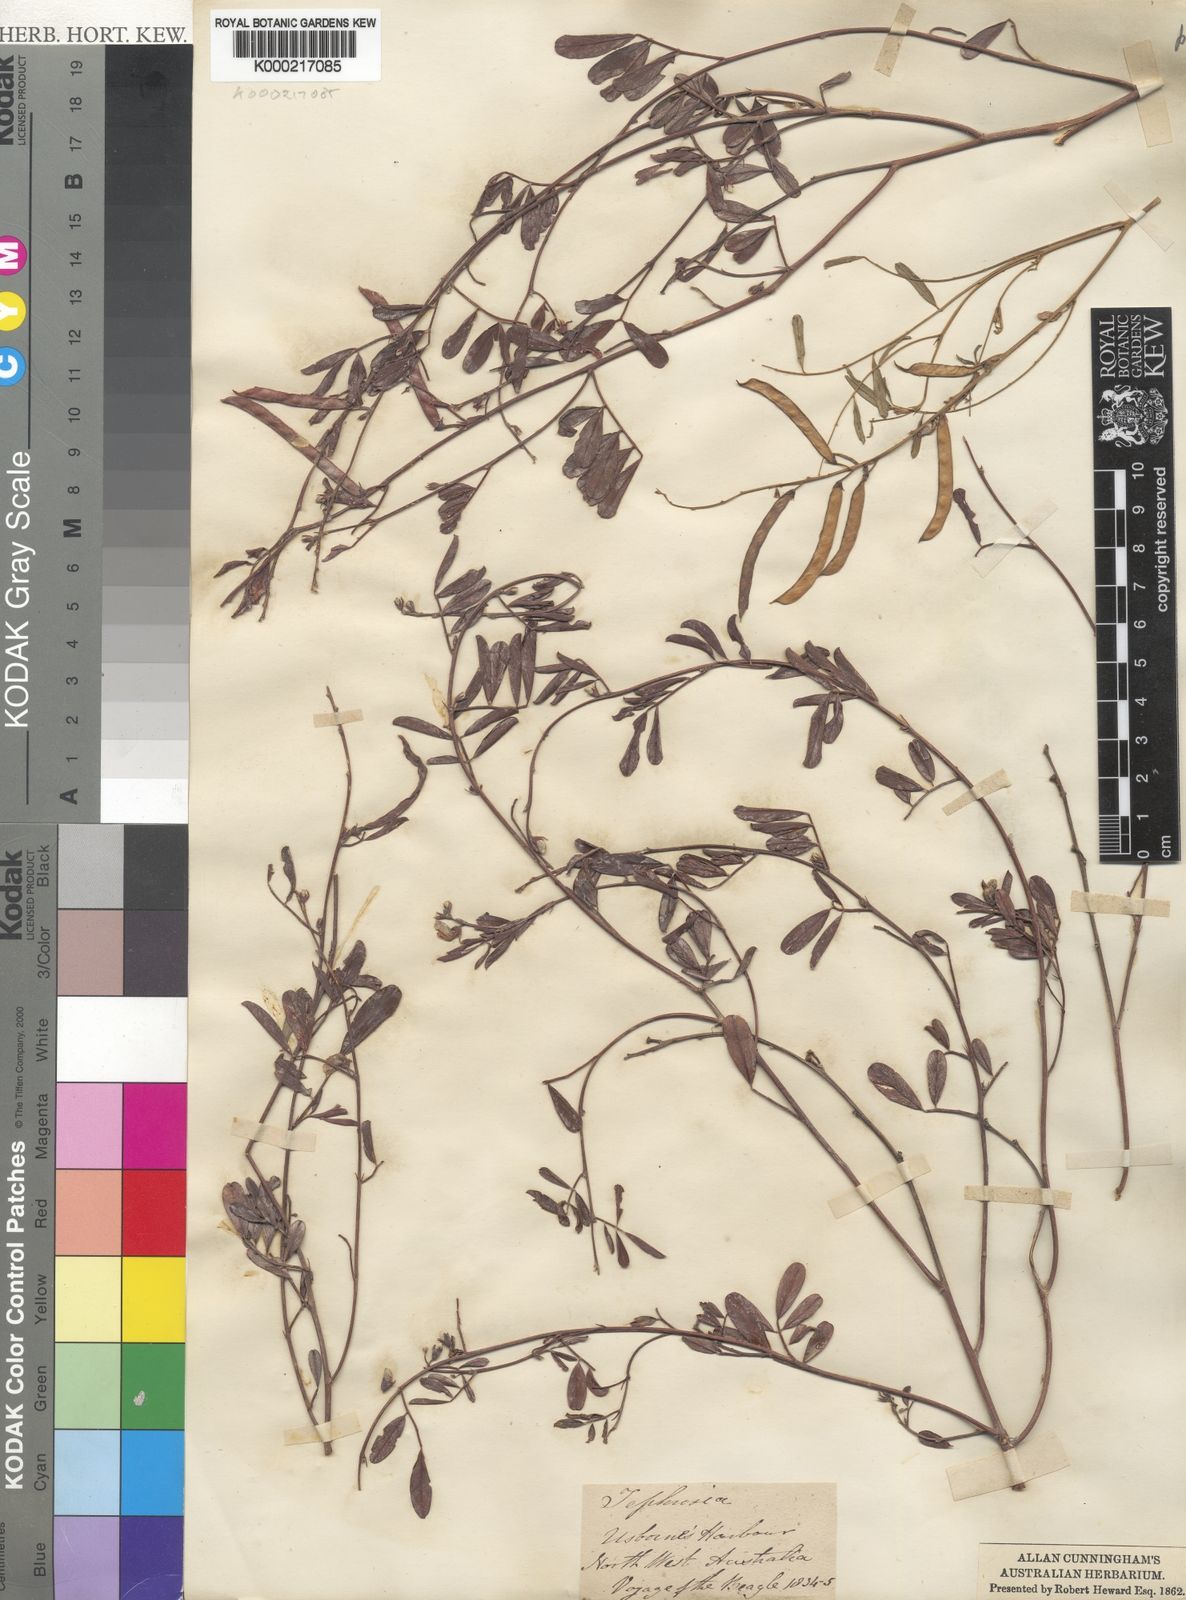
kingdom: Plantae
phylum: Tracheophyta
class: Magnoliopsida
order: Fabales
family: Fabaceae
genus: Tephrosia
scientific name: Tephrosia
